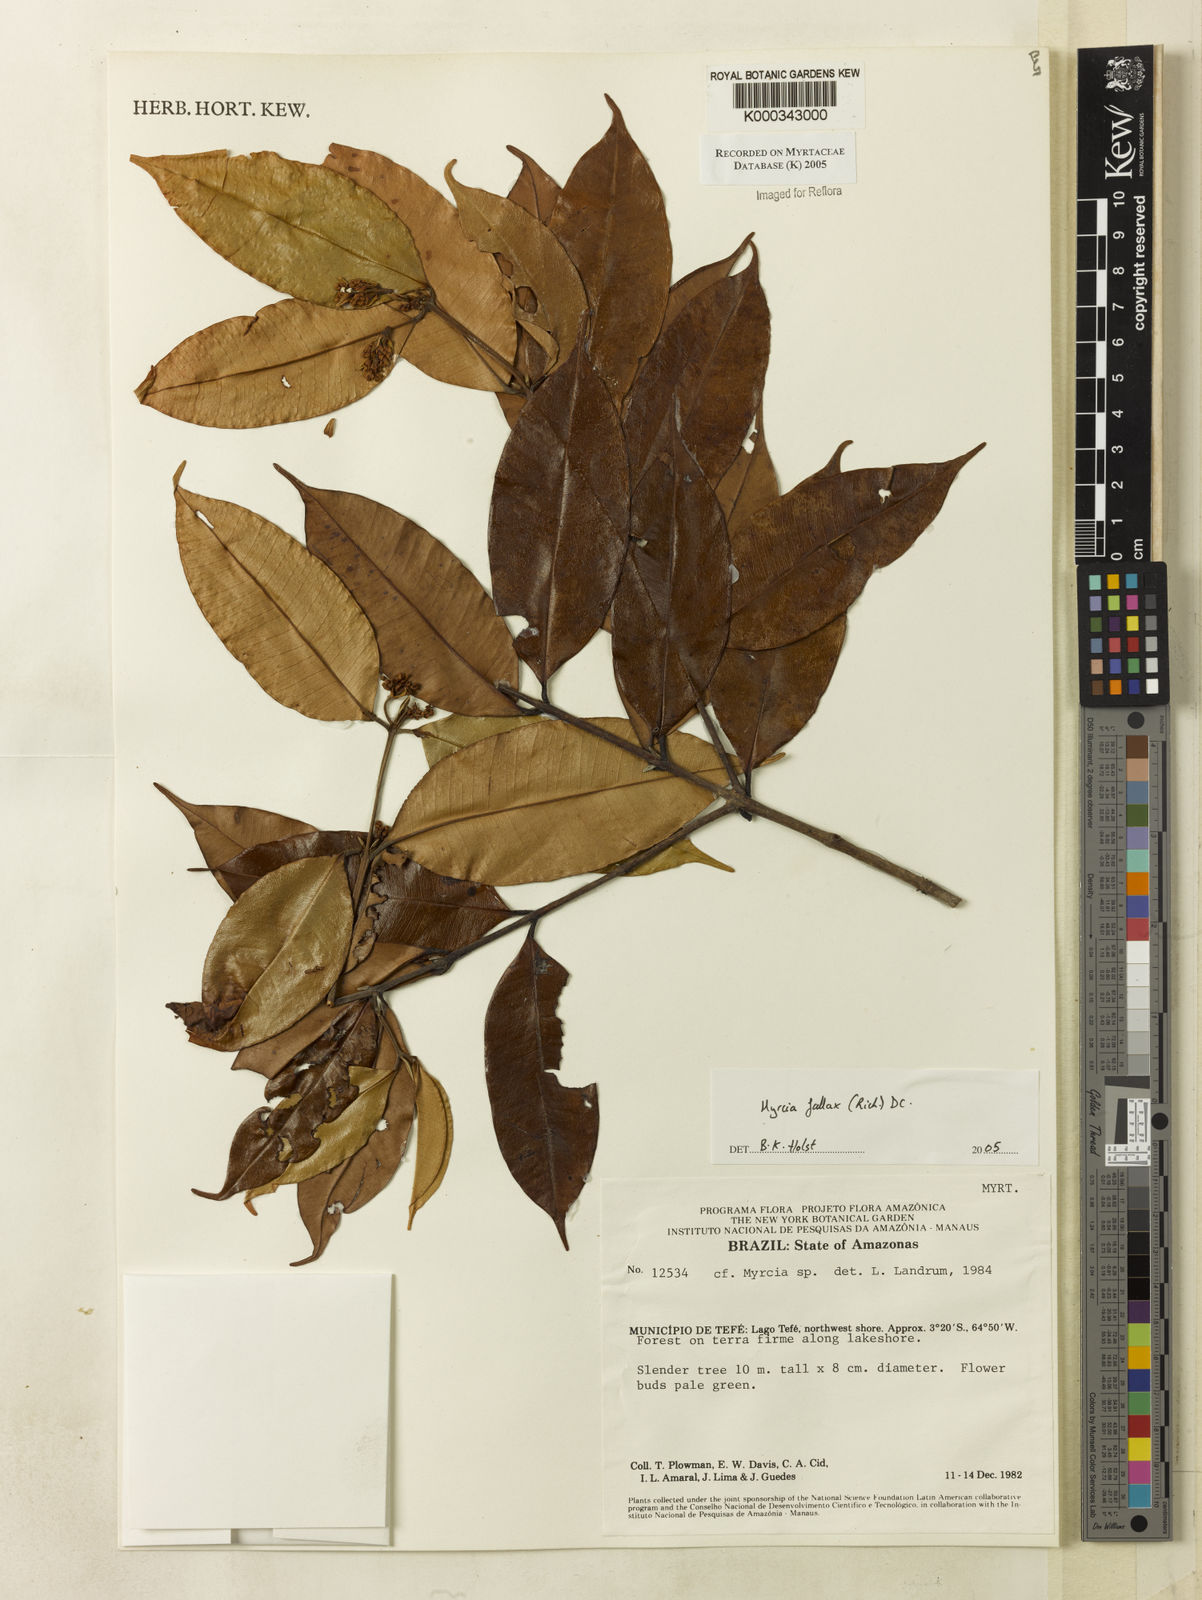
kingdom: Plantae
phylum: Tracheophyta
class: Magnoliopsida
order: Myrtales
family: Myrtaceae
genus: Myrcia
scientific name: Myrcia splendens
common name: Surinam cherry
